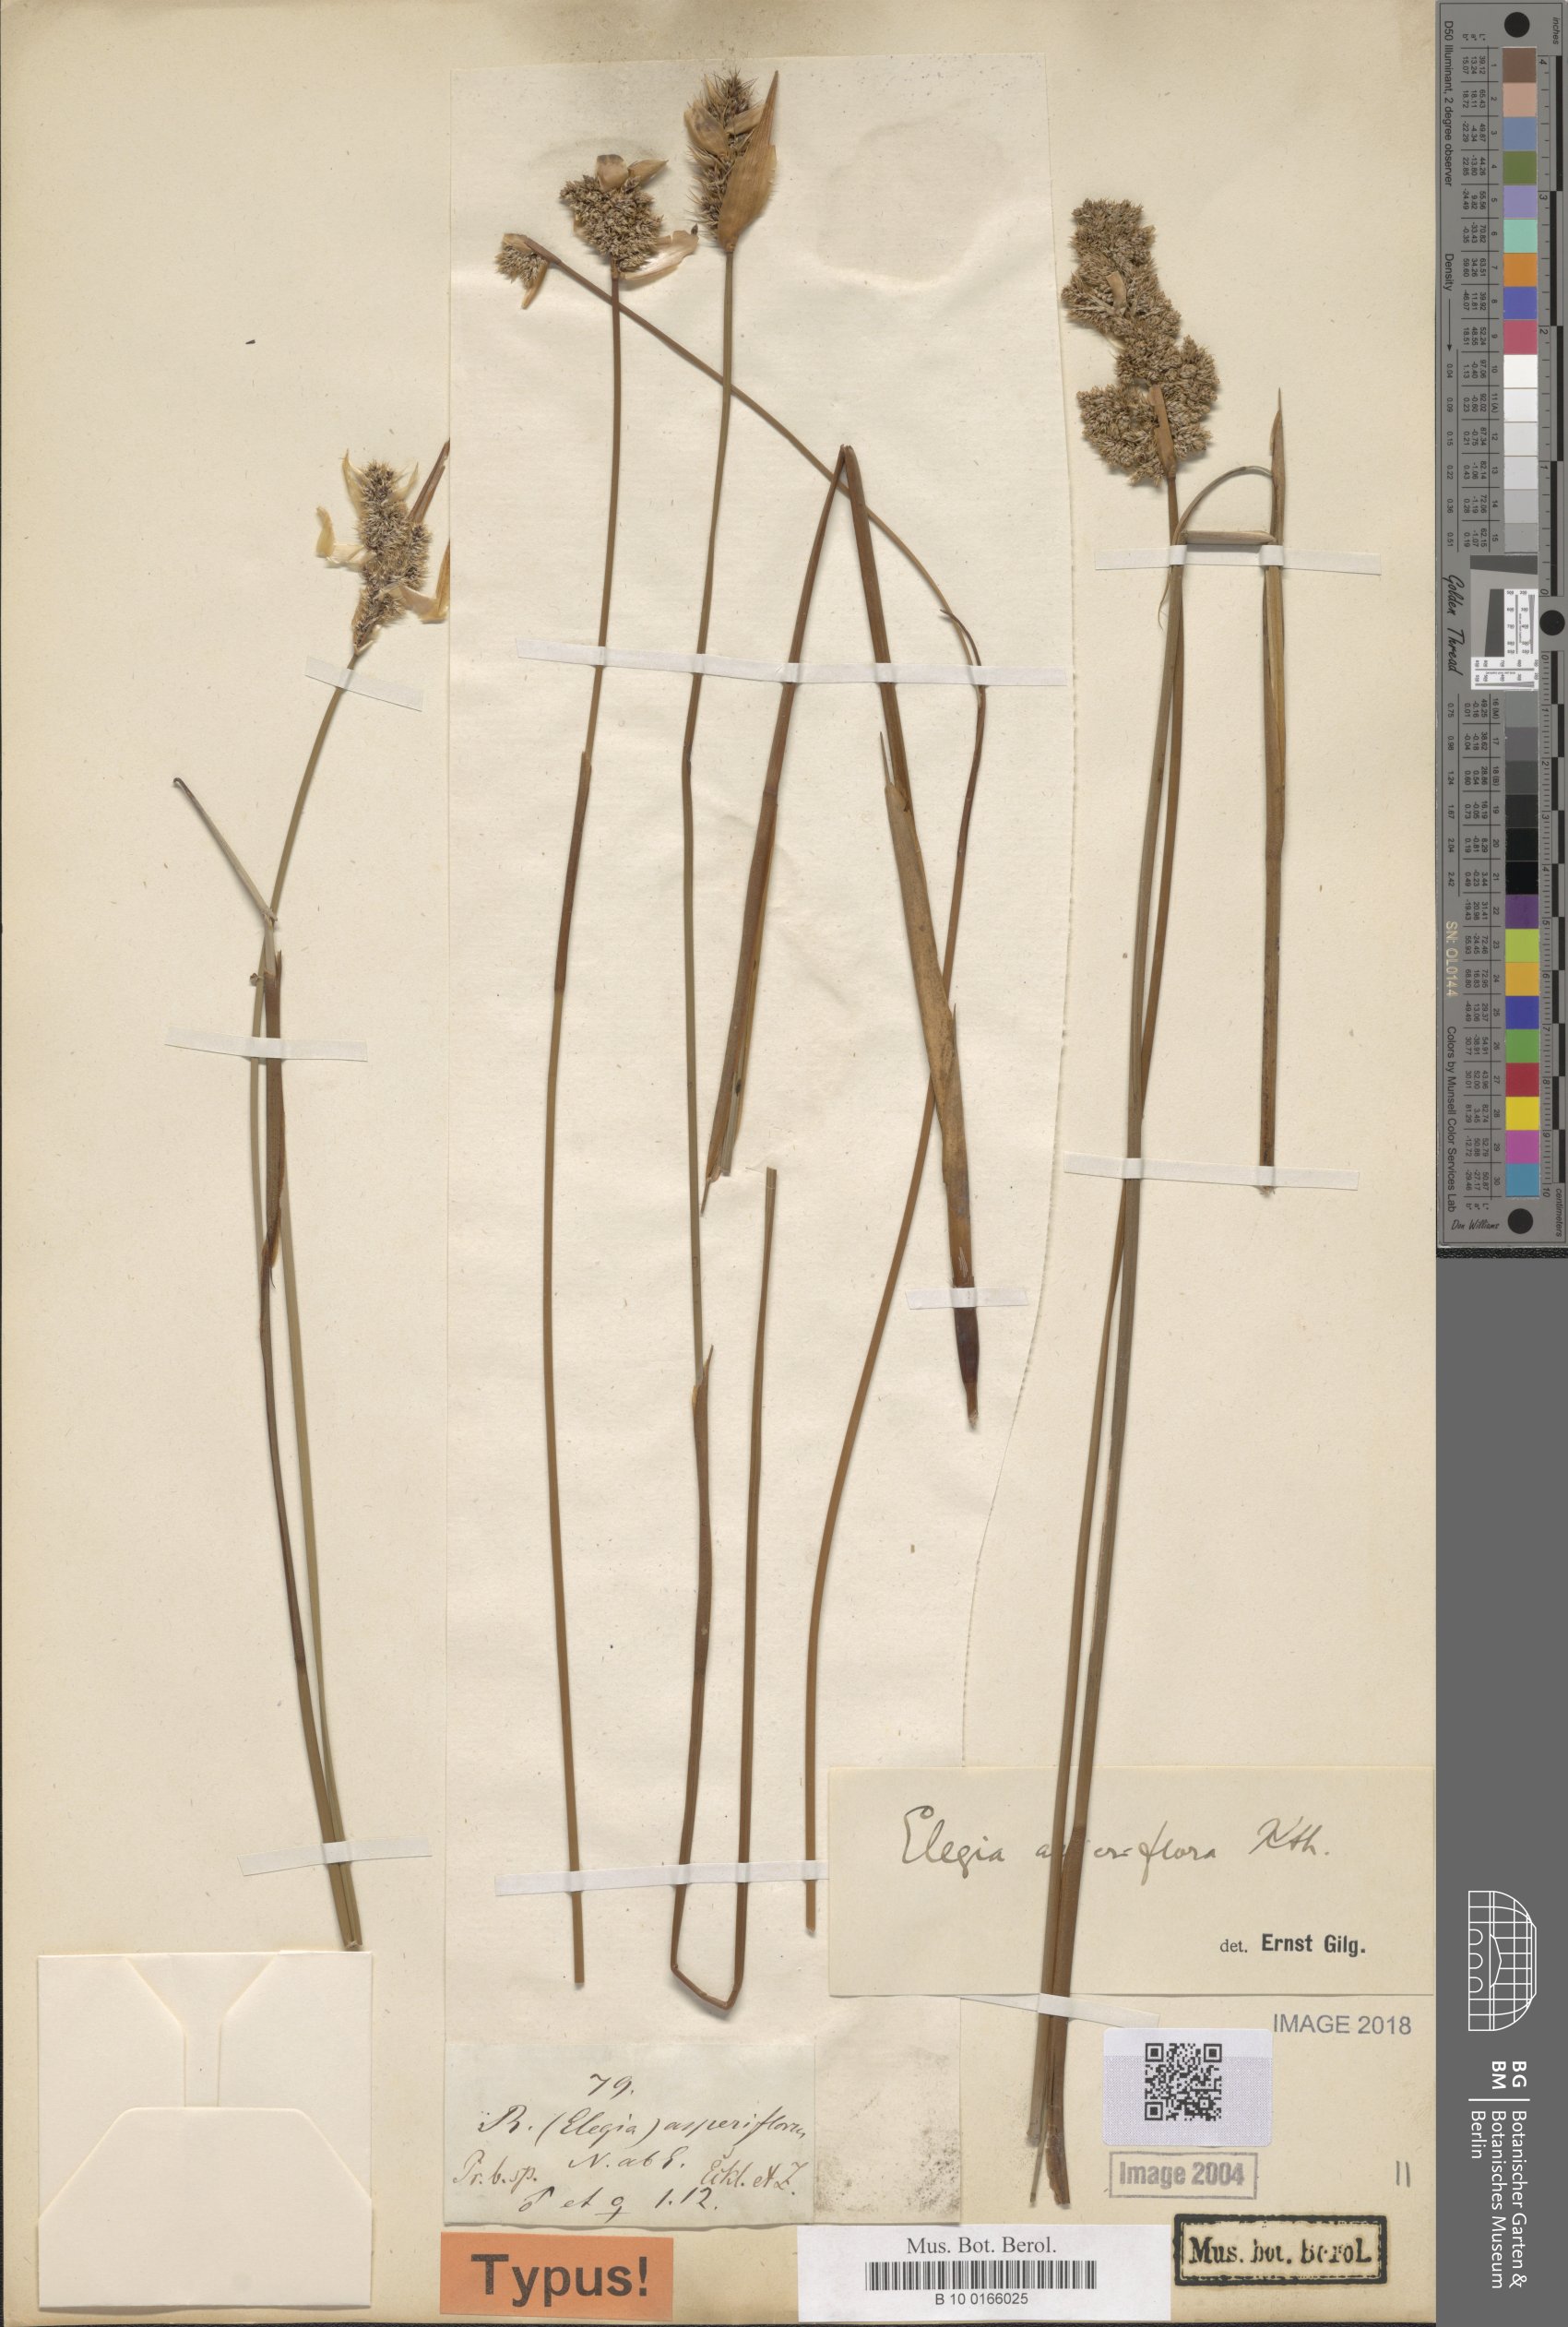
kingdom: Plantae
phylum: Tracheophyta
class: Liliopsida
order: Poales
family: Restionaceae
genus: Elegia
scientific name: Elegia asperiflora
